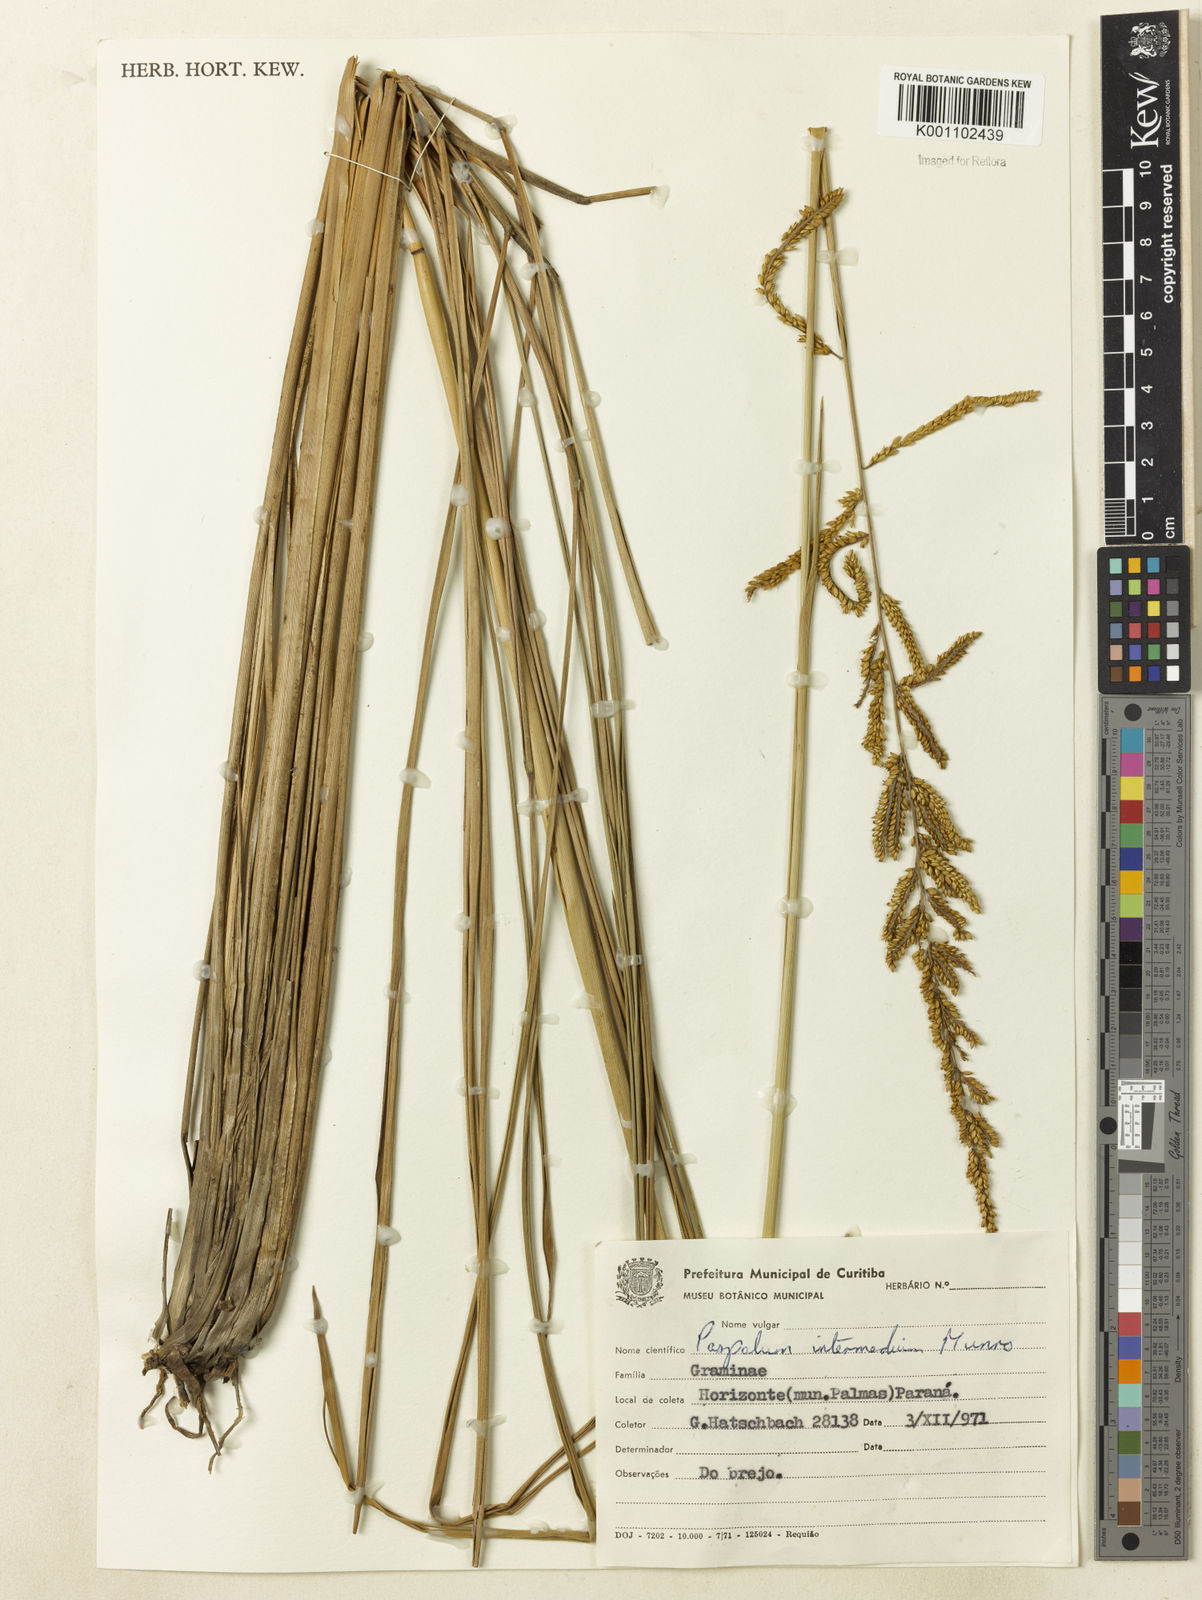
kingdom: Plantae
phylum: Tracheophyta
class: Liliopsida
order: Poales
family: Poaceae
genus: Paspalum
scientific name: Paspalum exaltatum
